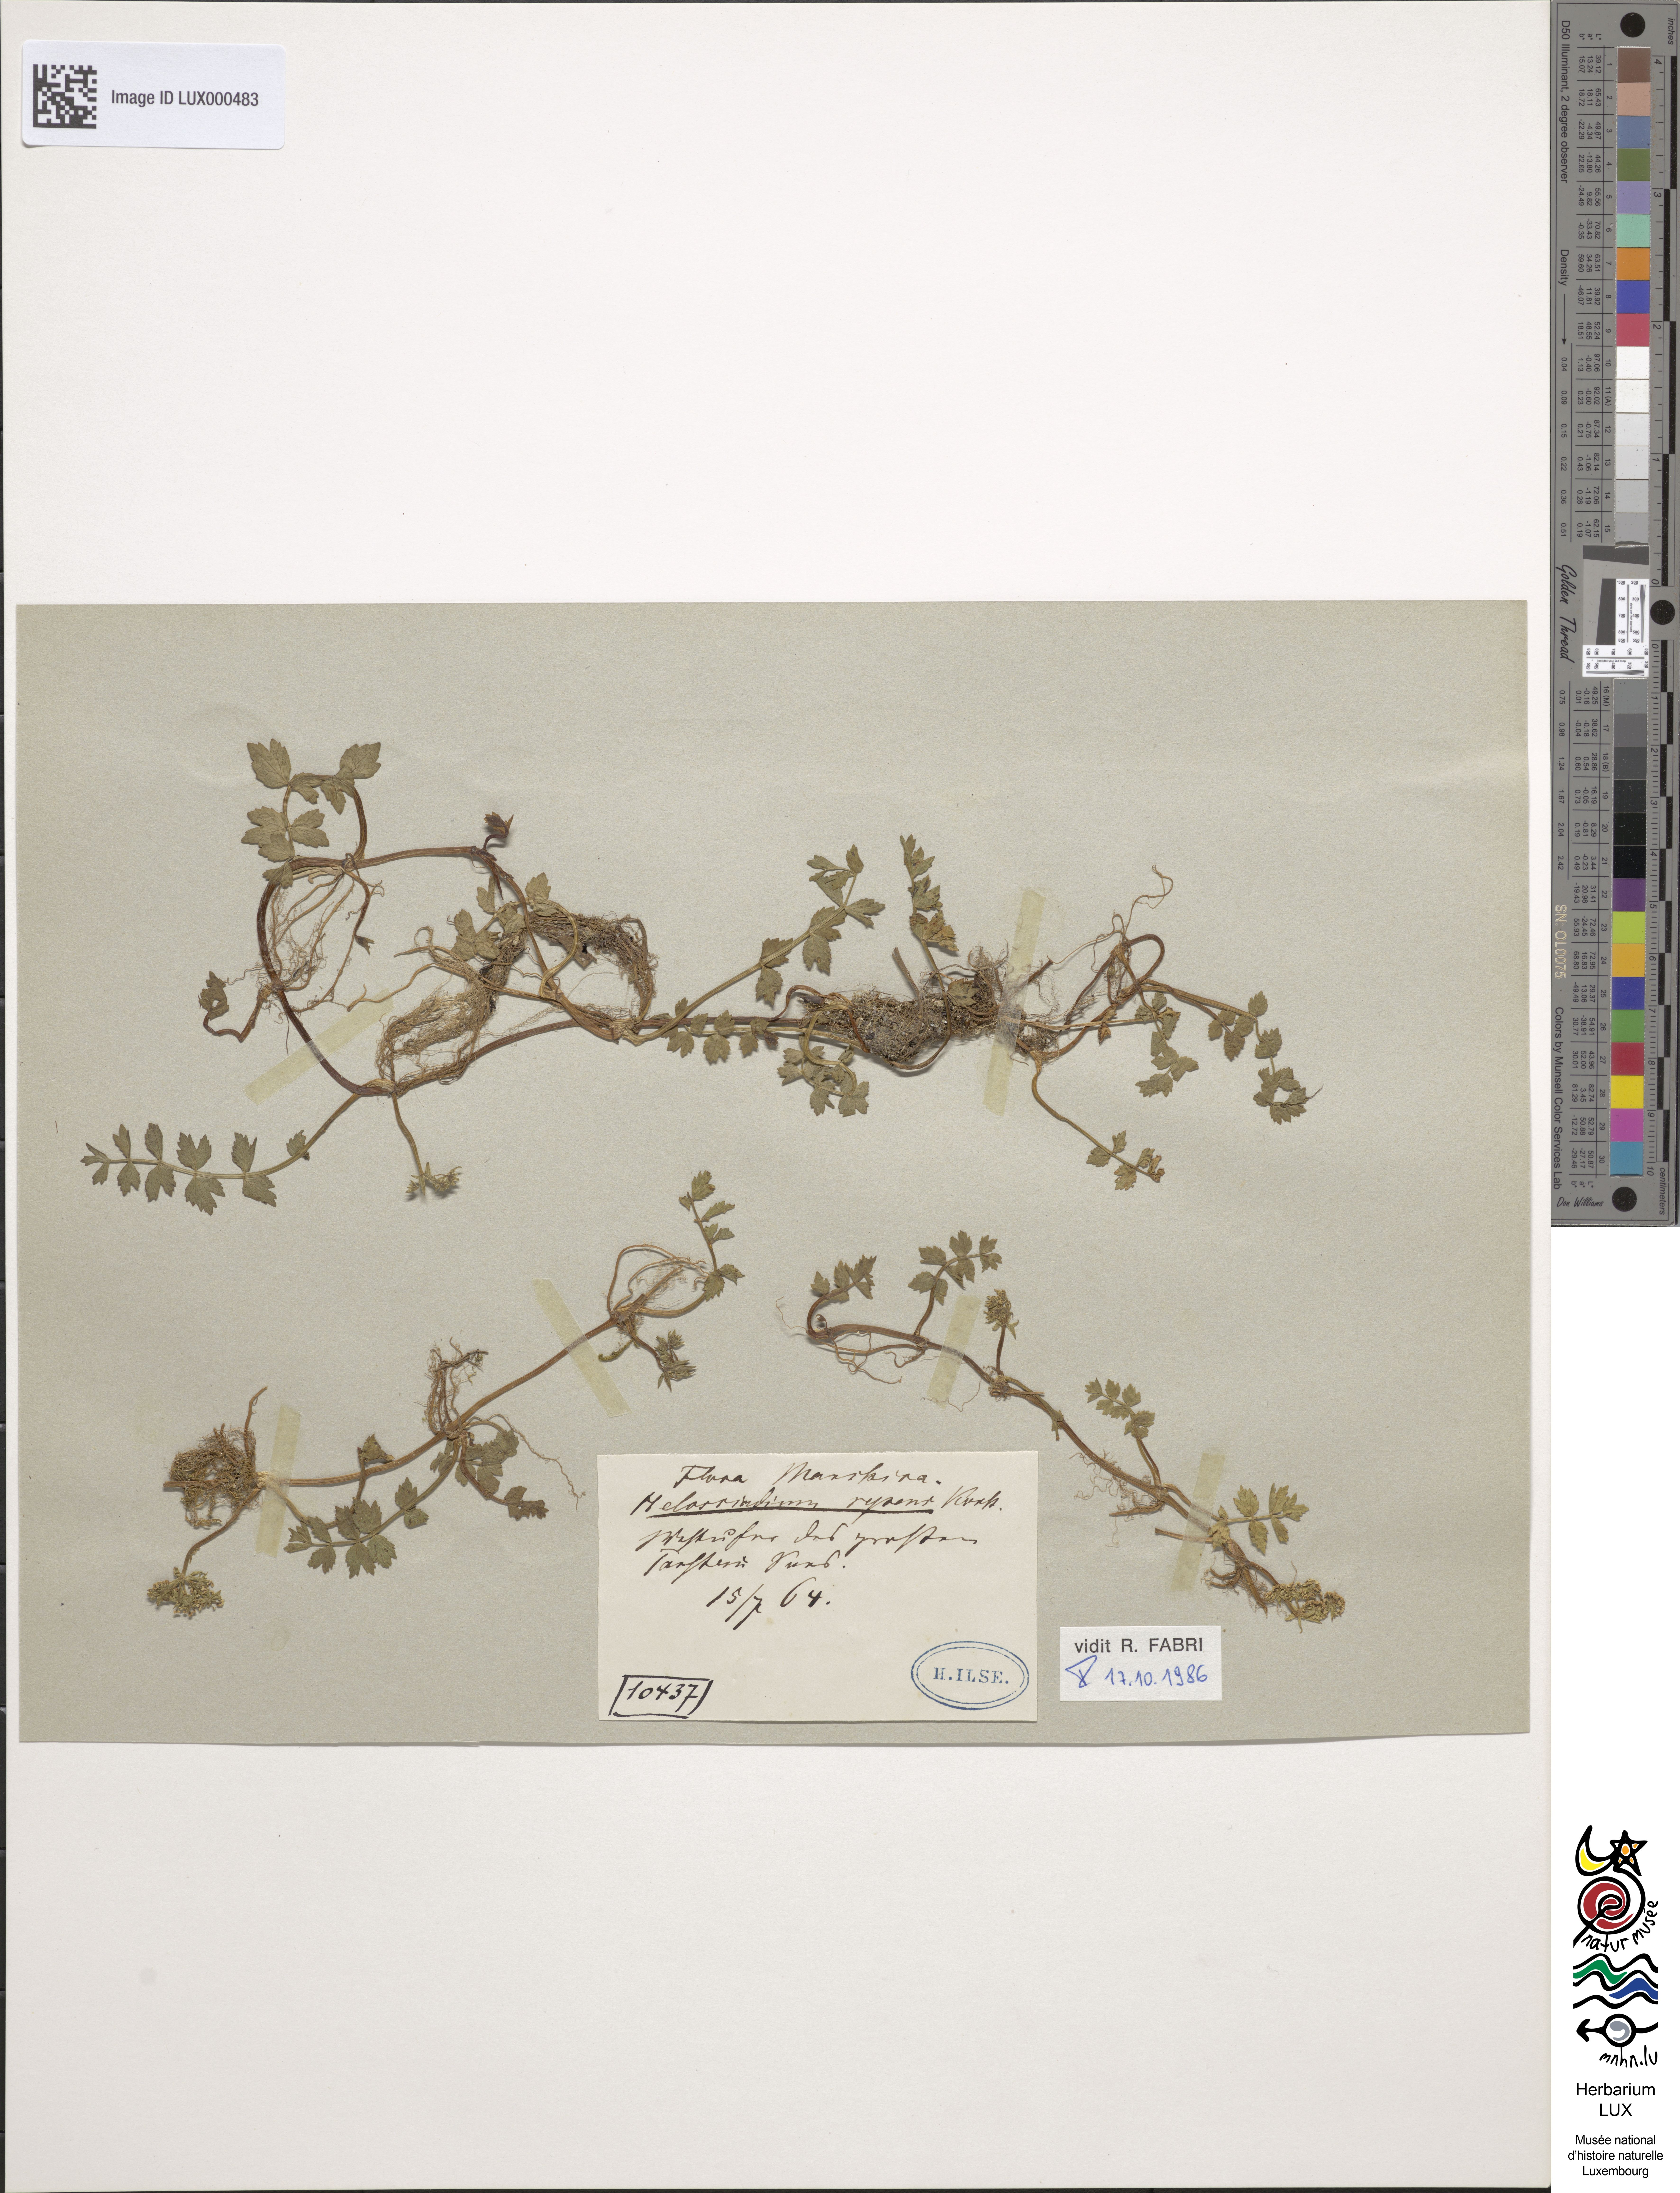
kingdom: Plantae
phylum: Tracheophyta
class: Magnoliopsida
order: Apiales
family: Apiaceae
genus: Helosciadium
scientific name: Helosciadium repens
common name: Creeping marshwort
